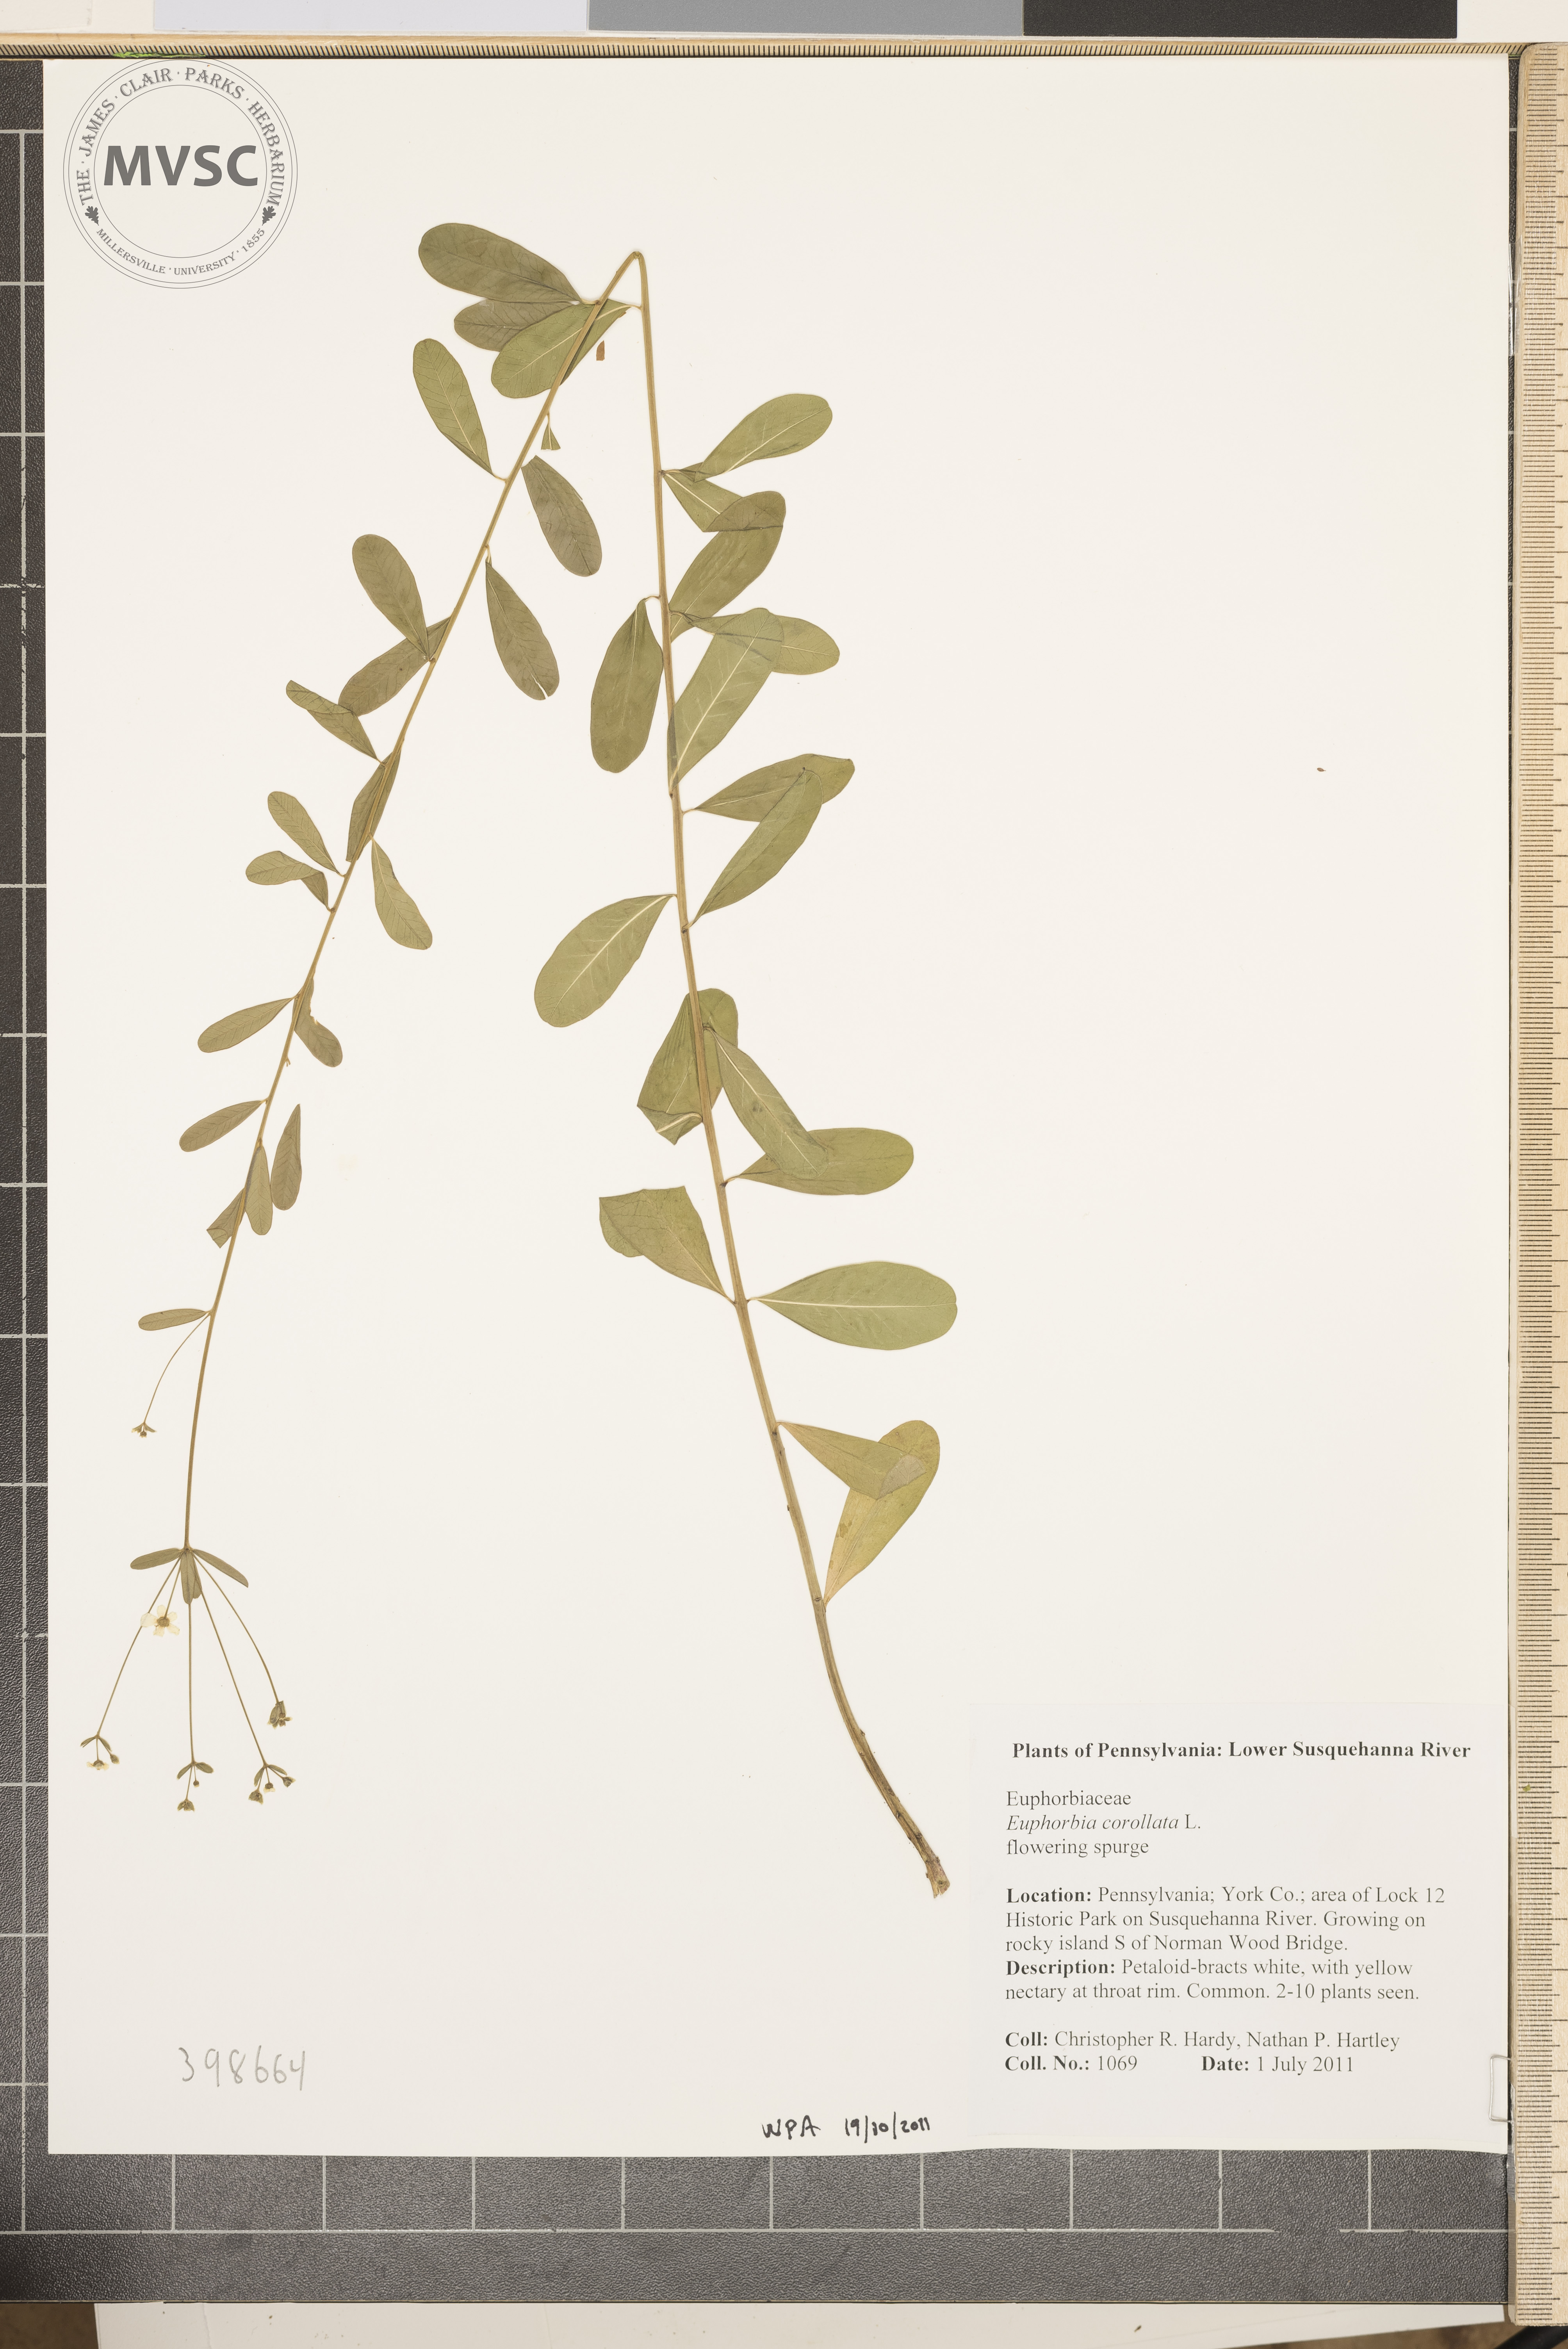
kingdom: Plantae
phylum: Tracheophyta
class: Magnoliopsida
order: Malpighiales
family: Euphorbiaceae
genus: Euphorbia
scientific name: Euphorbia corollata
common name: Flowering spurge
